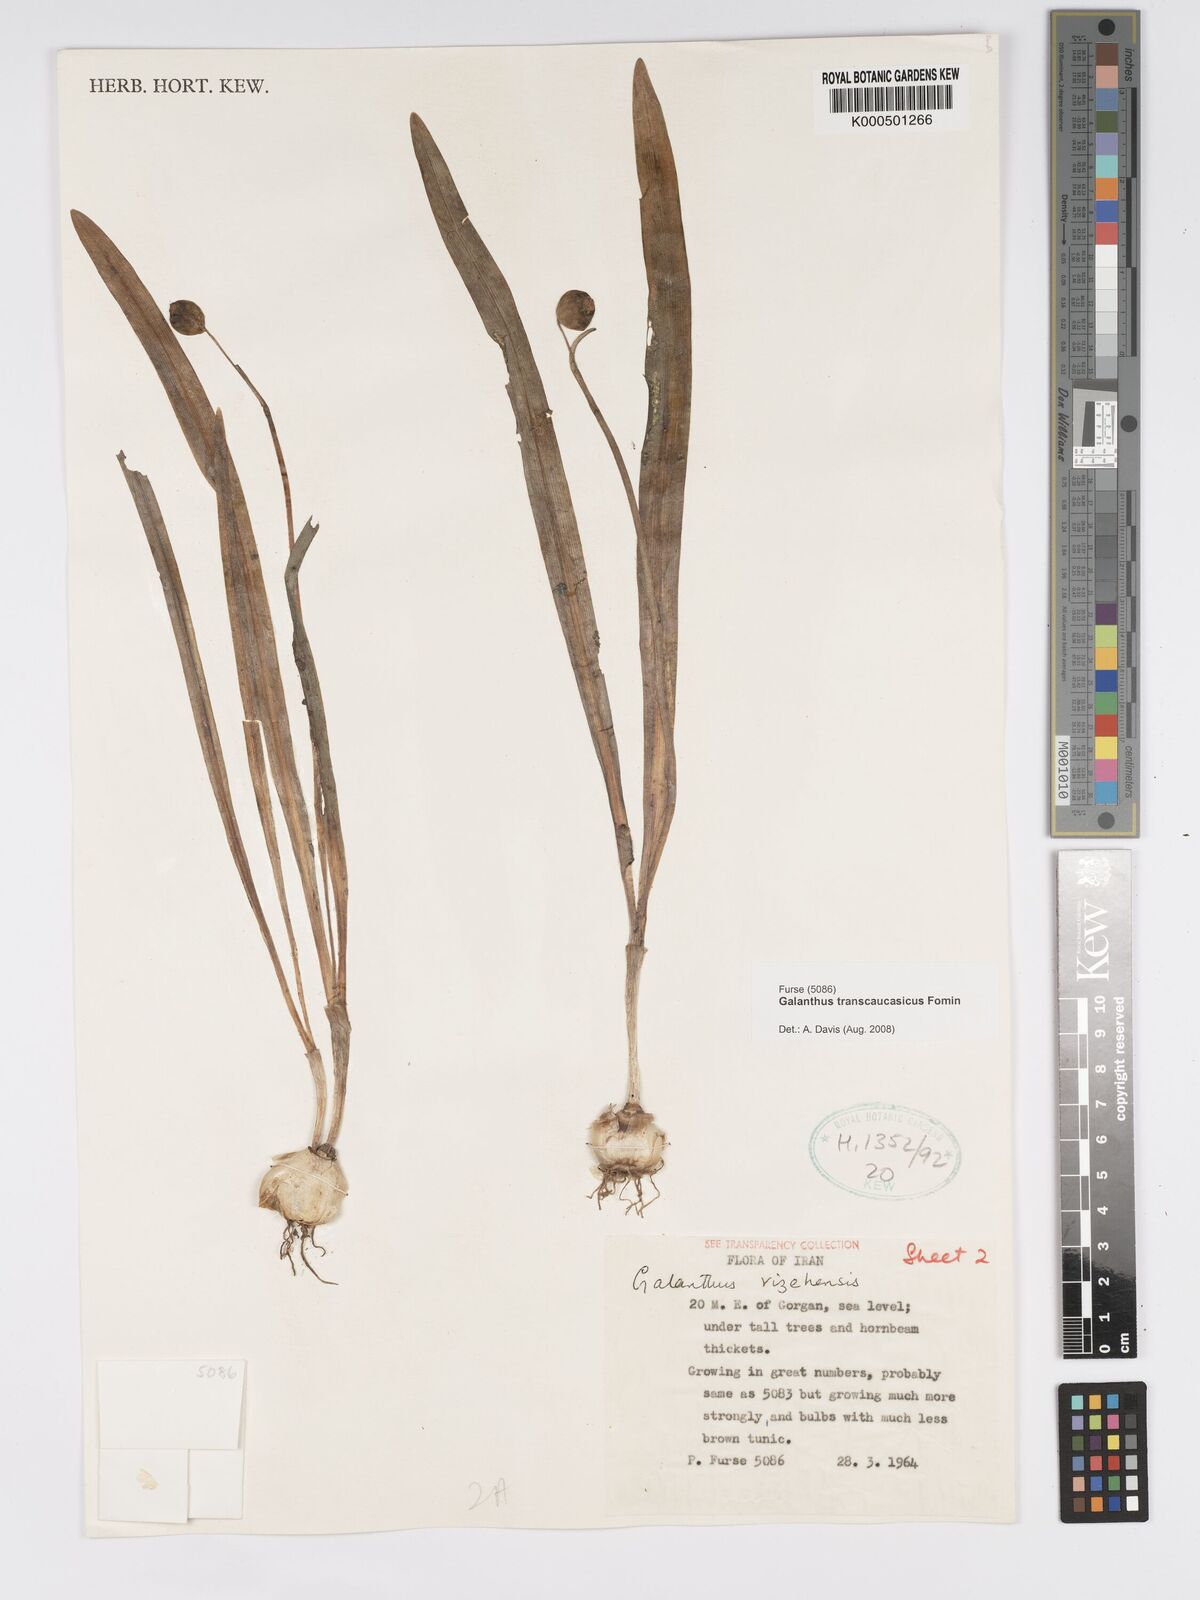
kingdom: Plantae
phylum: Tracheophyta
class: Liliopsida
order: Asparagales
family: Amaryllidaceae
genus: Galanthus
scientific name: Galanthus transcaucasicus
